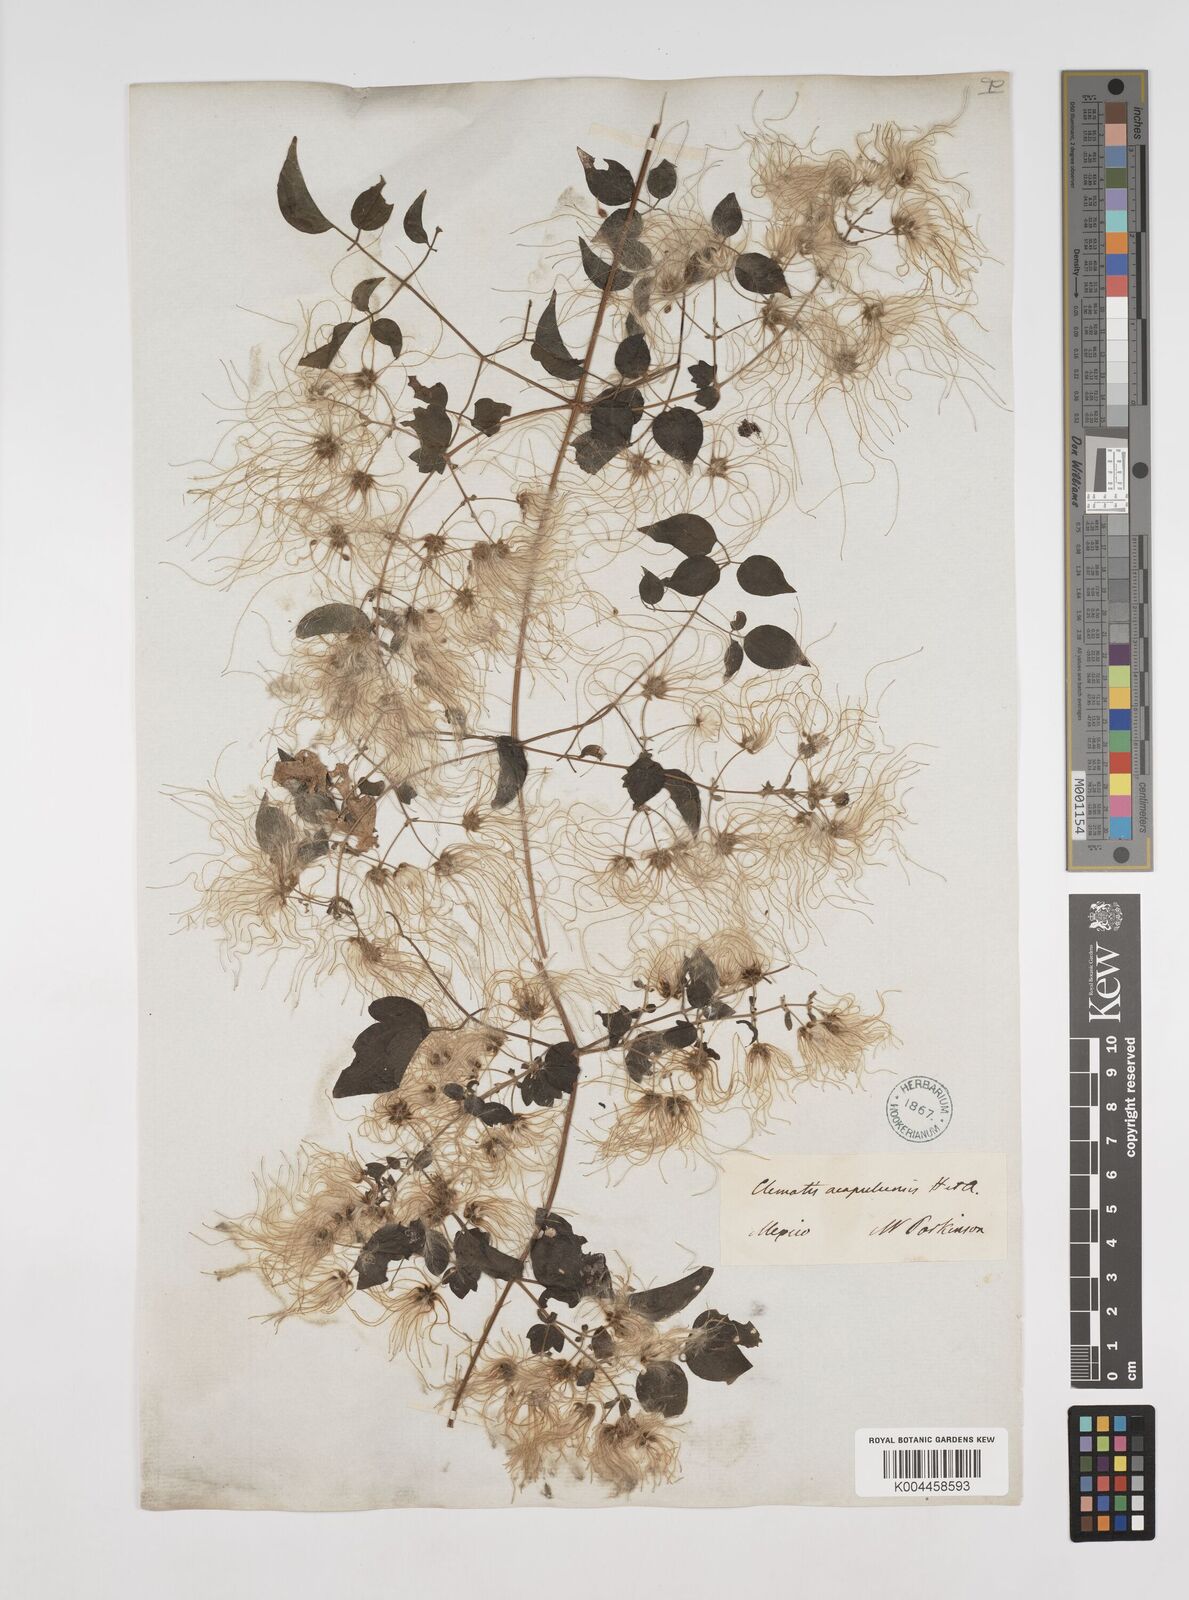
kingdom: Plantae
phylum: Tracheophyta
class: Magnoliopsida
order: Ranunculales
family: Ranunculaceae
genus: Clematis
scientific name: Clematis acapulcensis
